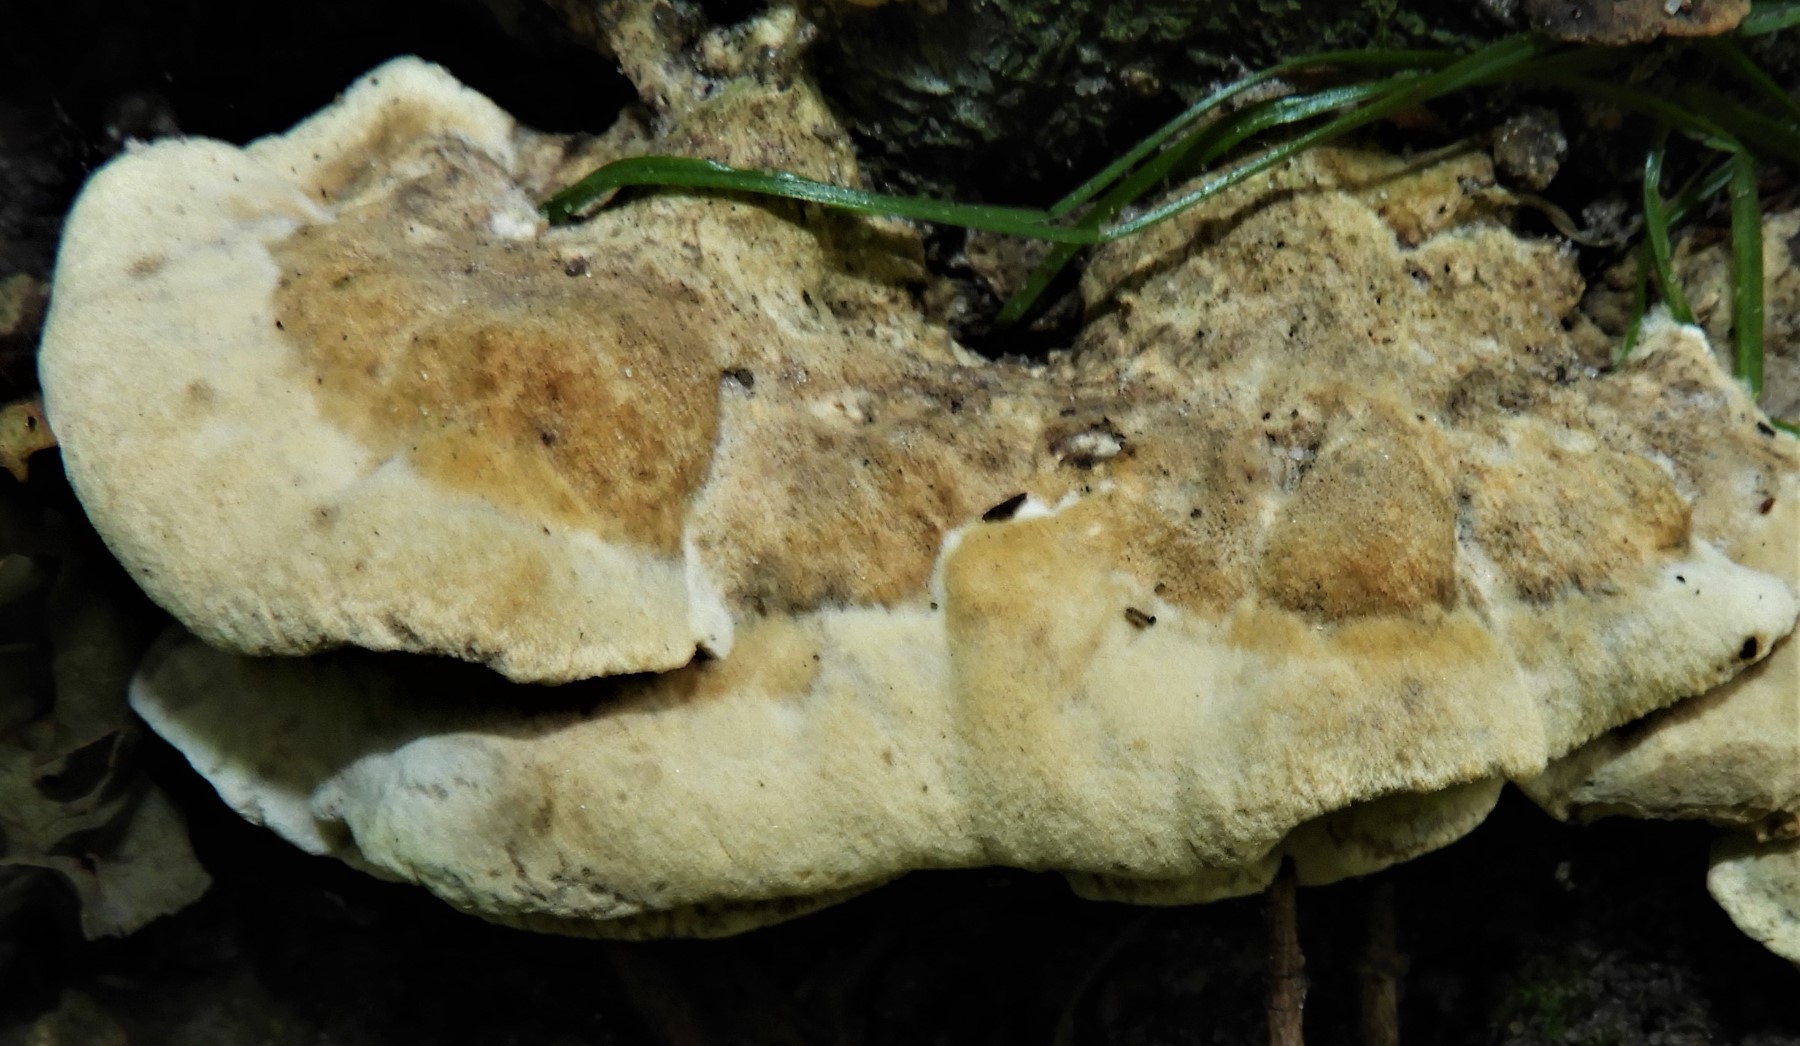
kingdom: Fungi
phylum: Basidiomycota
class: Agaricomycetes
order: Polyporales
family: Polyporaceae
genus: Trametes
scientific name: Trametes versicolor
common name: broget læderporesvamp
